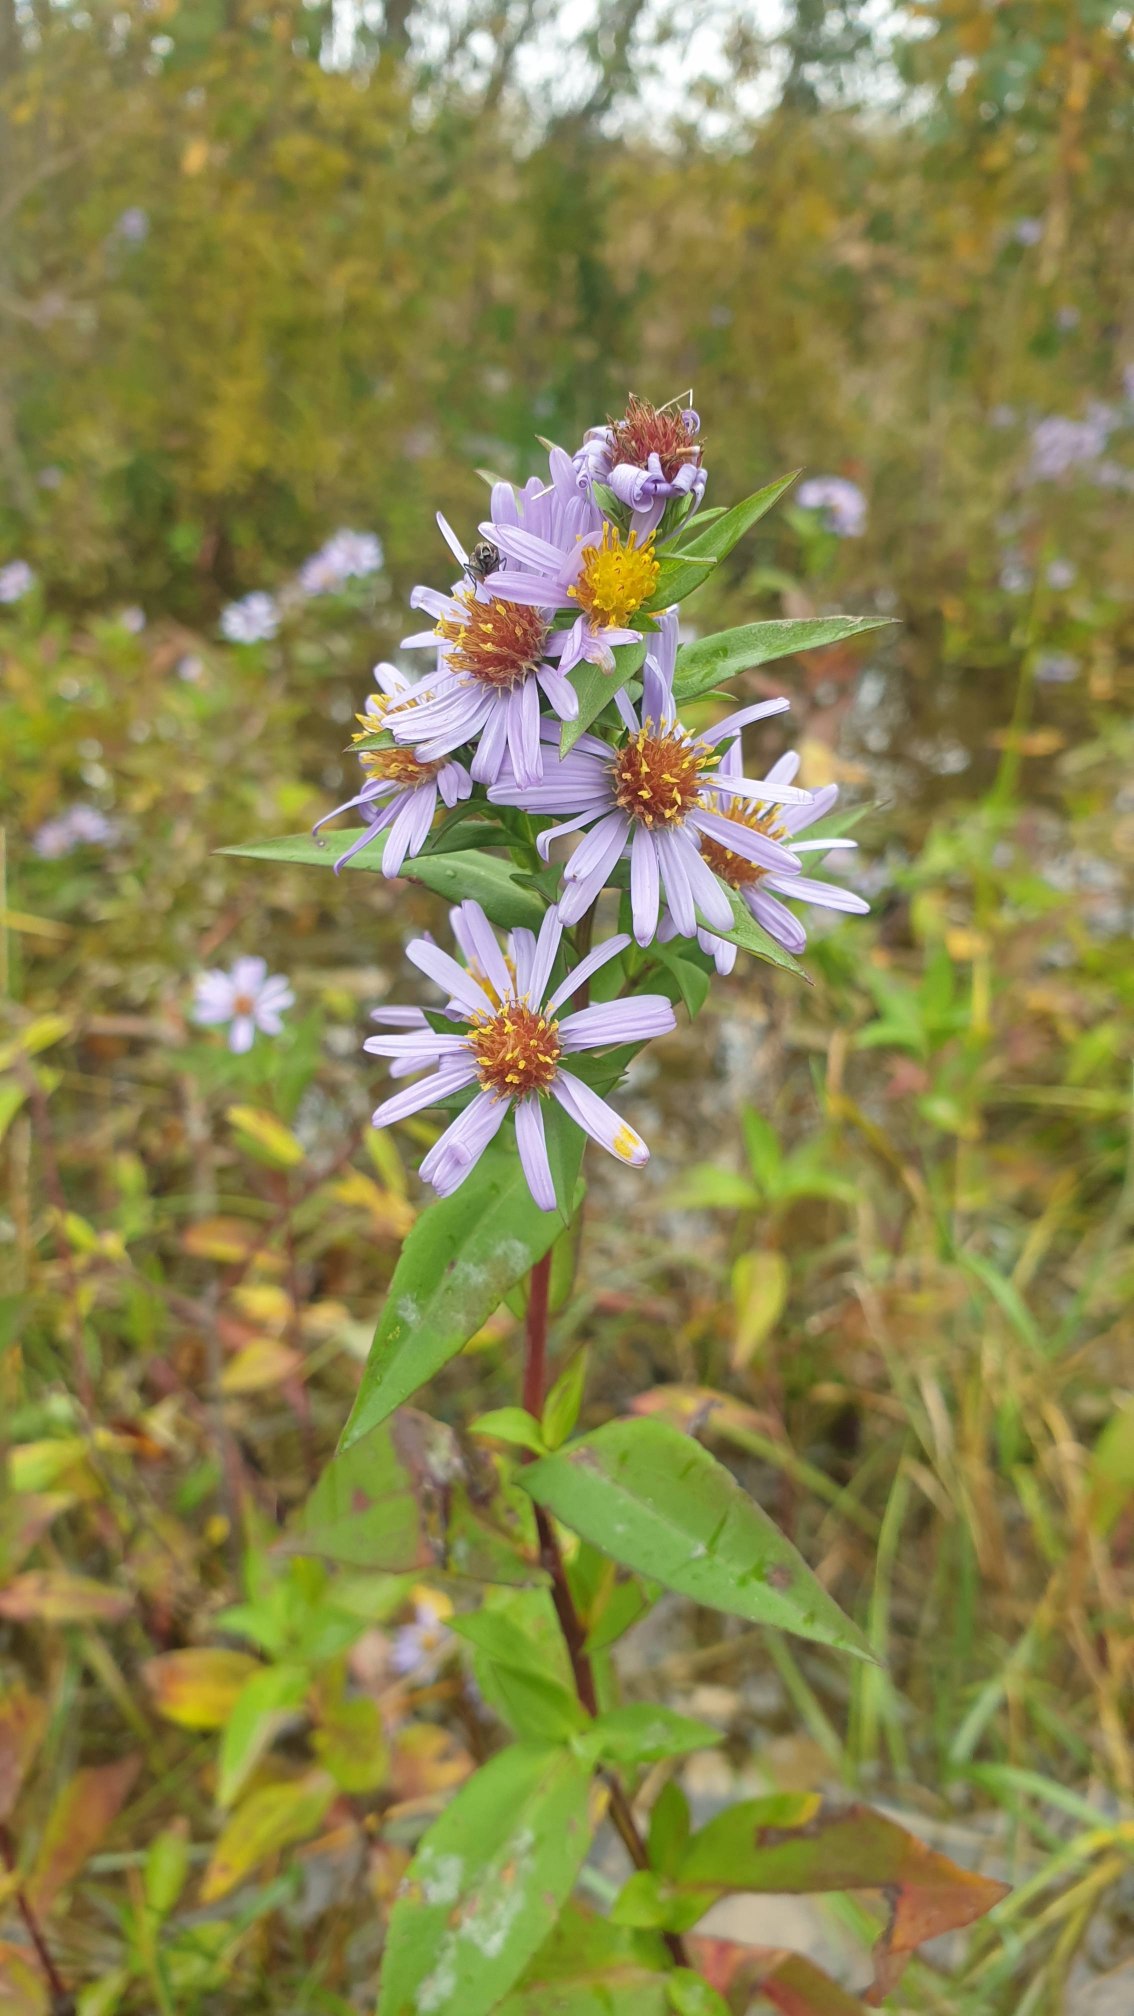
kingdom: Plantae
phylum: Tracheophyta
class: Magnoliopsida
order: Asterales
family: Asteraceae
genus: Symphyotrichum
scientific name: Symphyotrichum versicolor
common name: Broget asters
